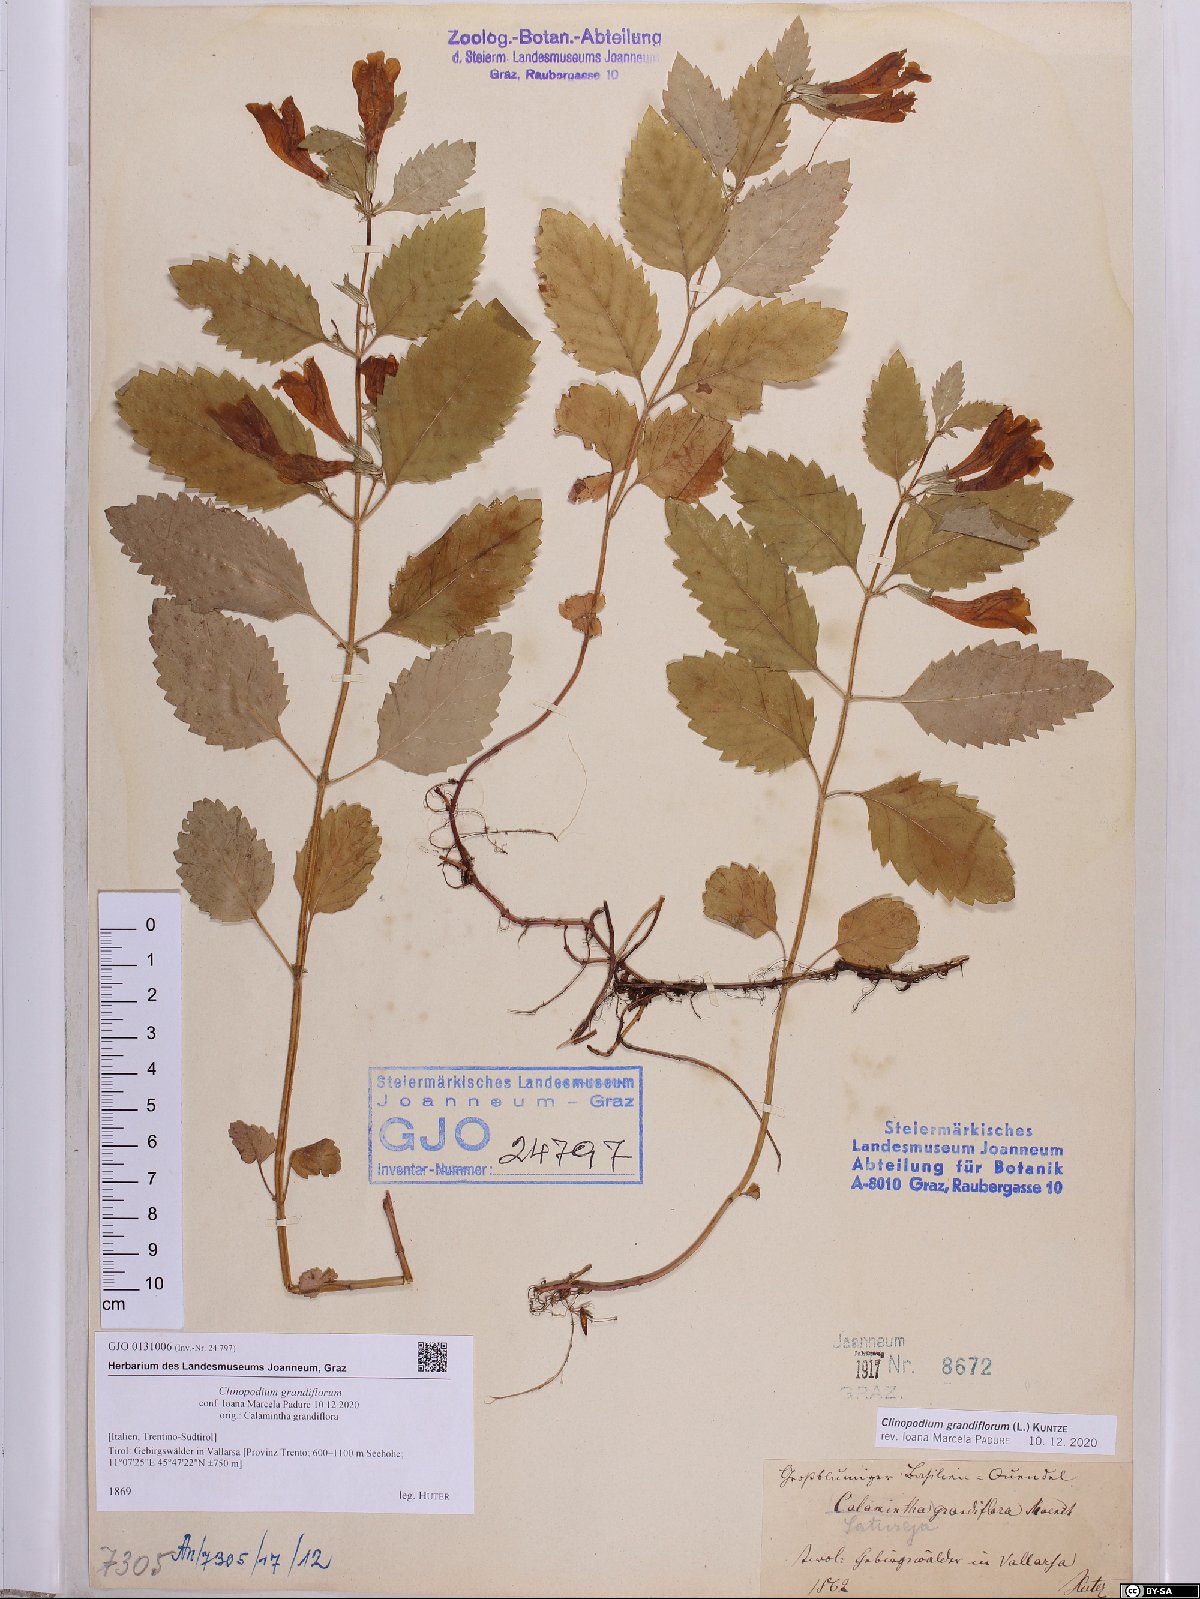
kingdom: Plantae
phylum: Tracheophyta
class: Magnoliopsida
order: Lamiales
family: Lamiaceae
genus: Clinopodium
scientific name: Clinopodium grandiflorum
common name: Greater calamint
